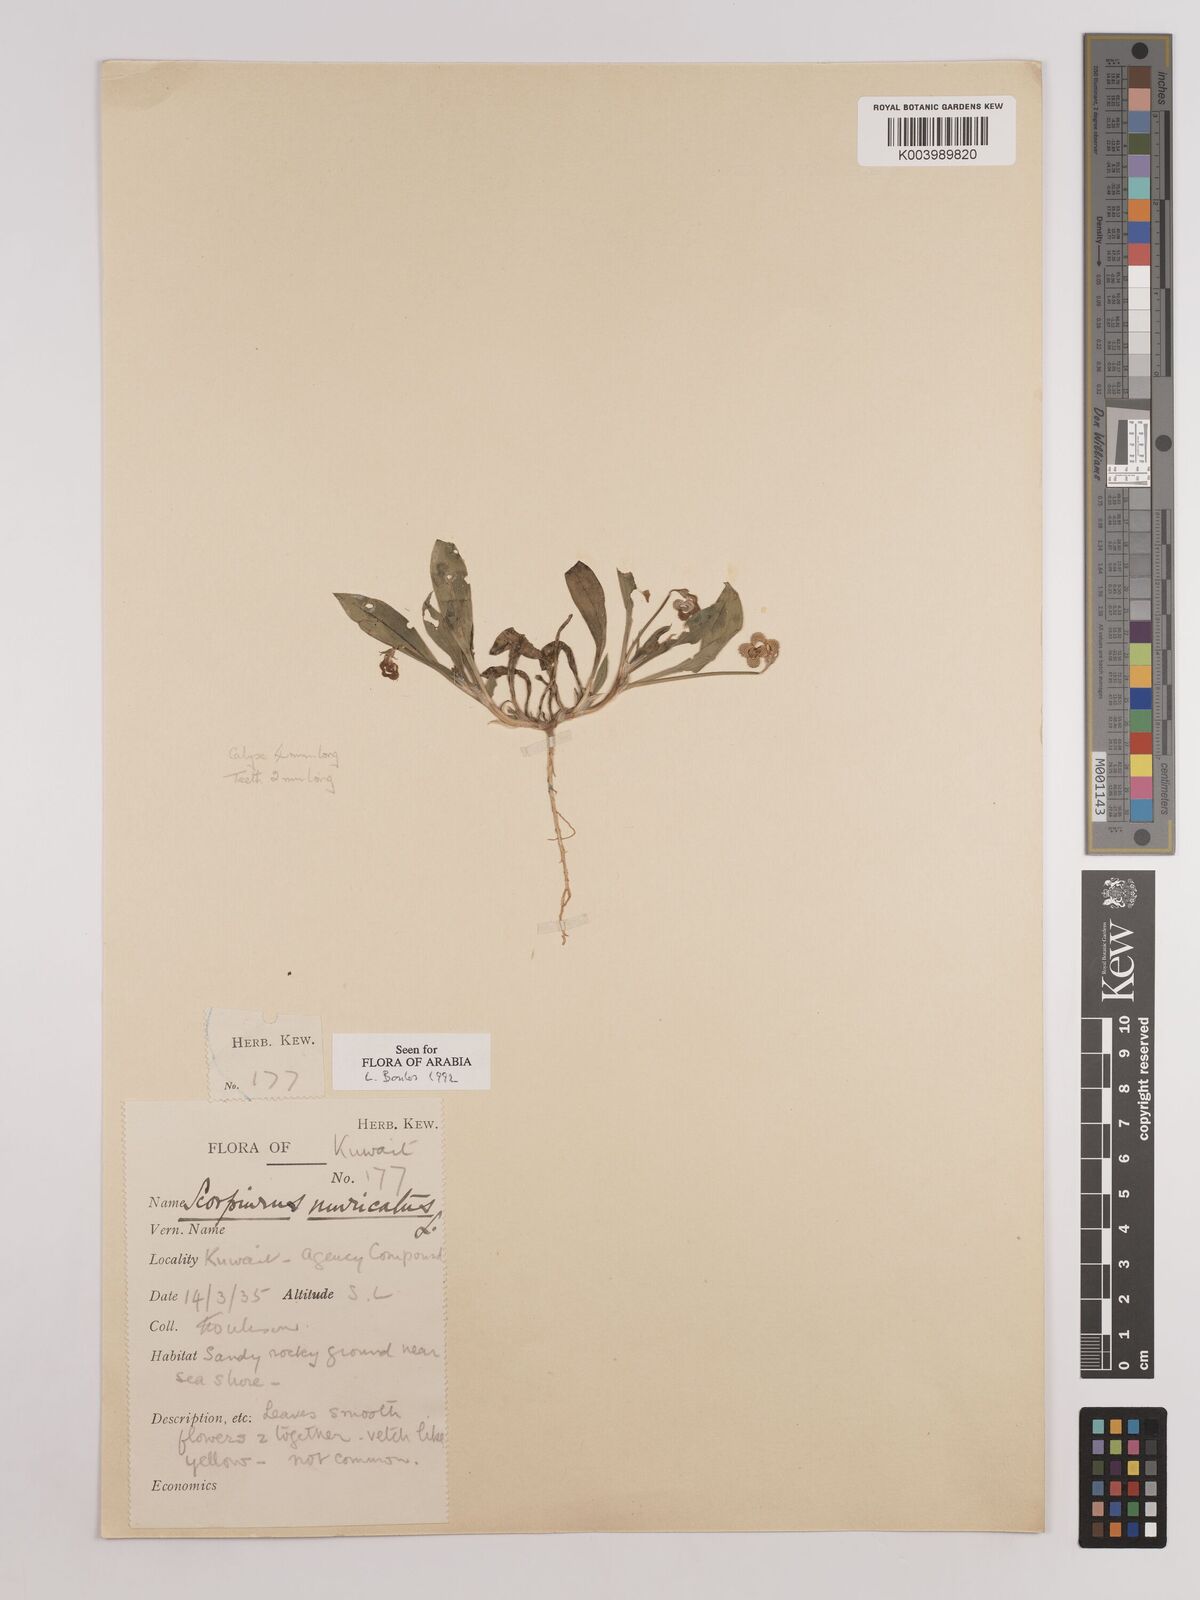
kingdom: Plantae
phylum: Tracheophyta
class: Magnoliopsida
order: Fabales
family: Fabaceae
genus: Scorpiurus
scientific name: Scorpiurus muricatus
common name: Caterpillar-plant
